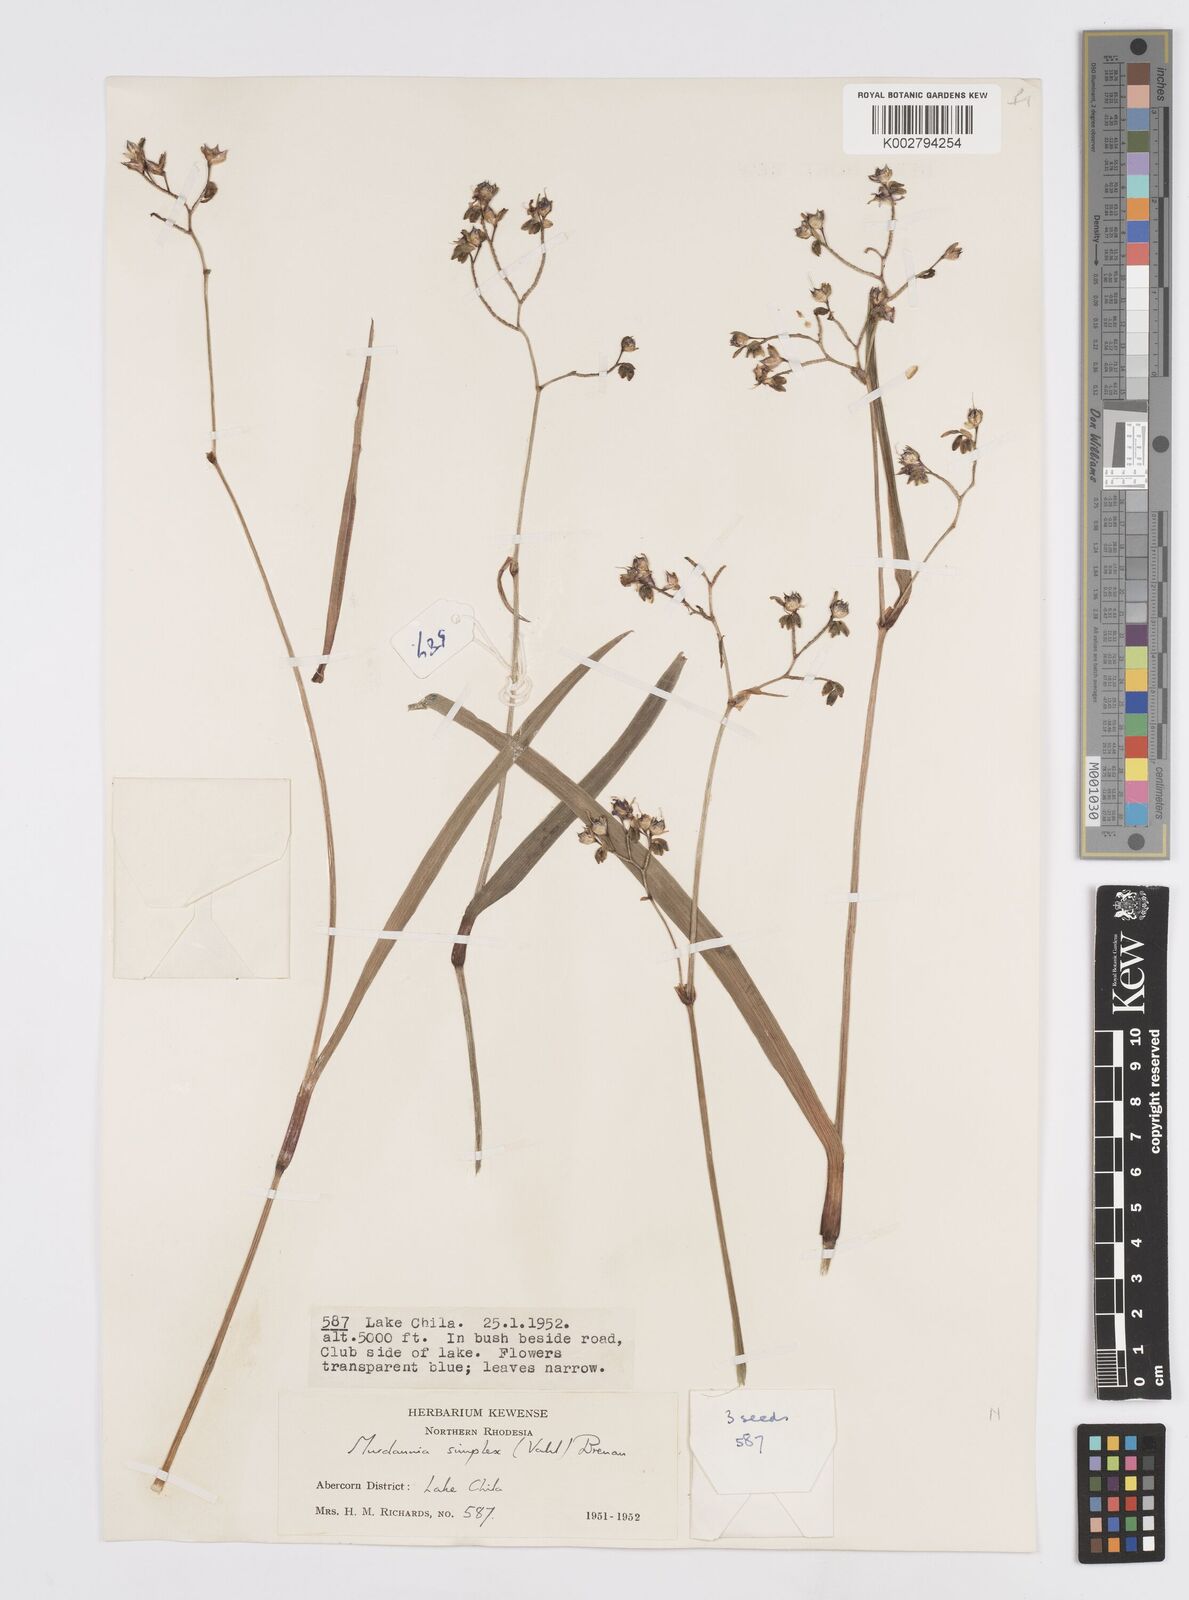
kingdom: Plantae
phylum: Tracheophyta
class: Liliopsida
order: Commelinales
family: Commelinaceae
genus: Murdannia
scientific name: Murdannia simplex
